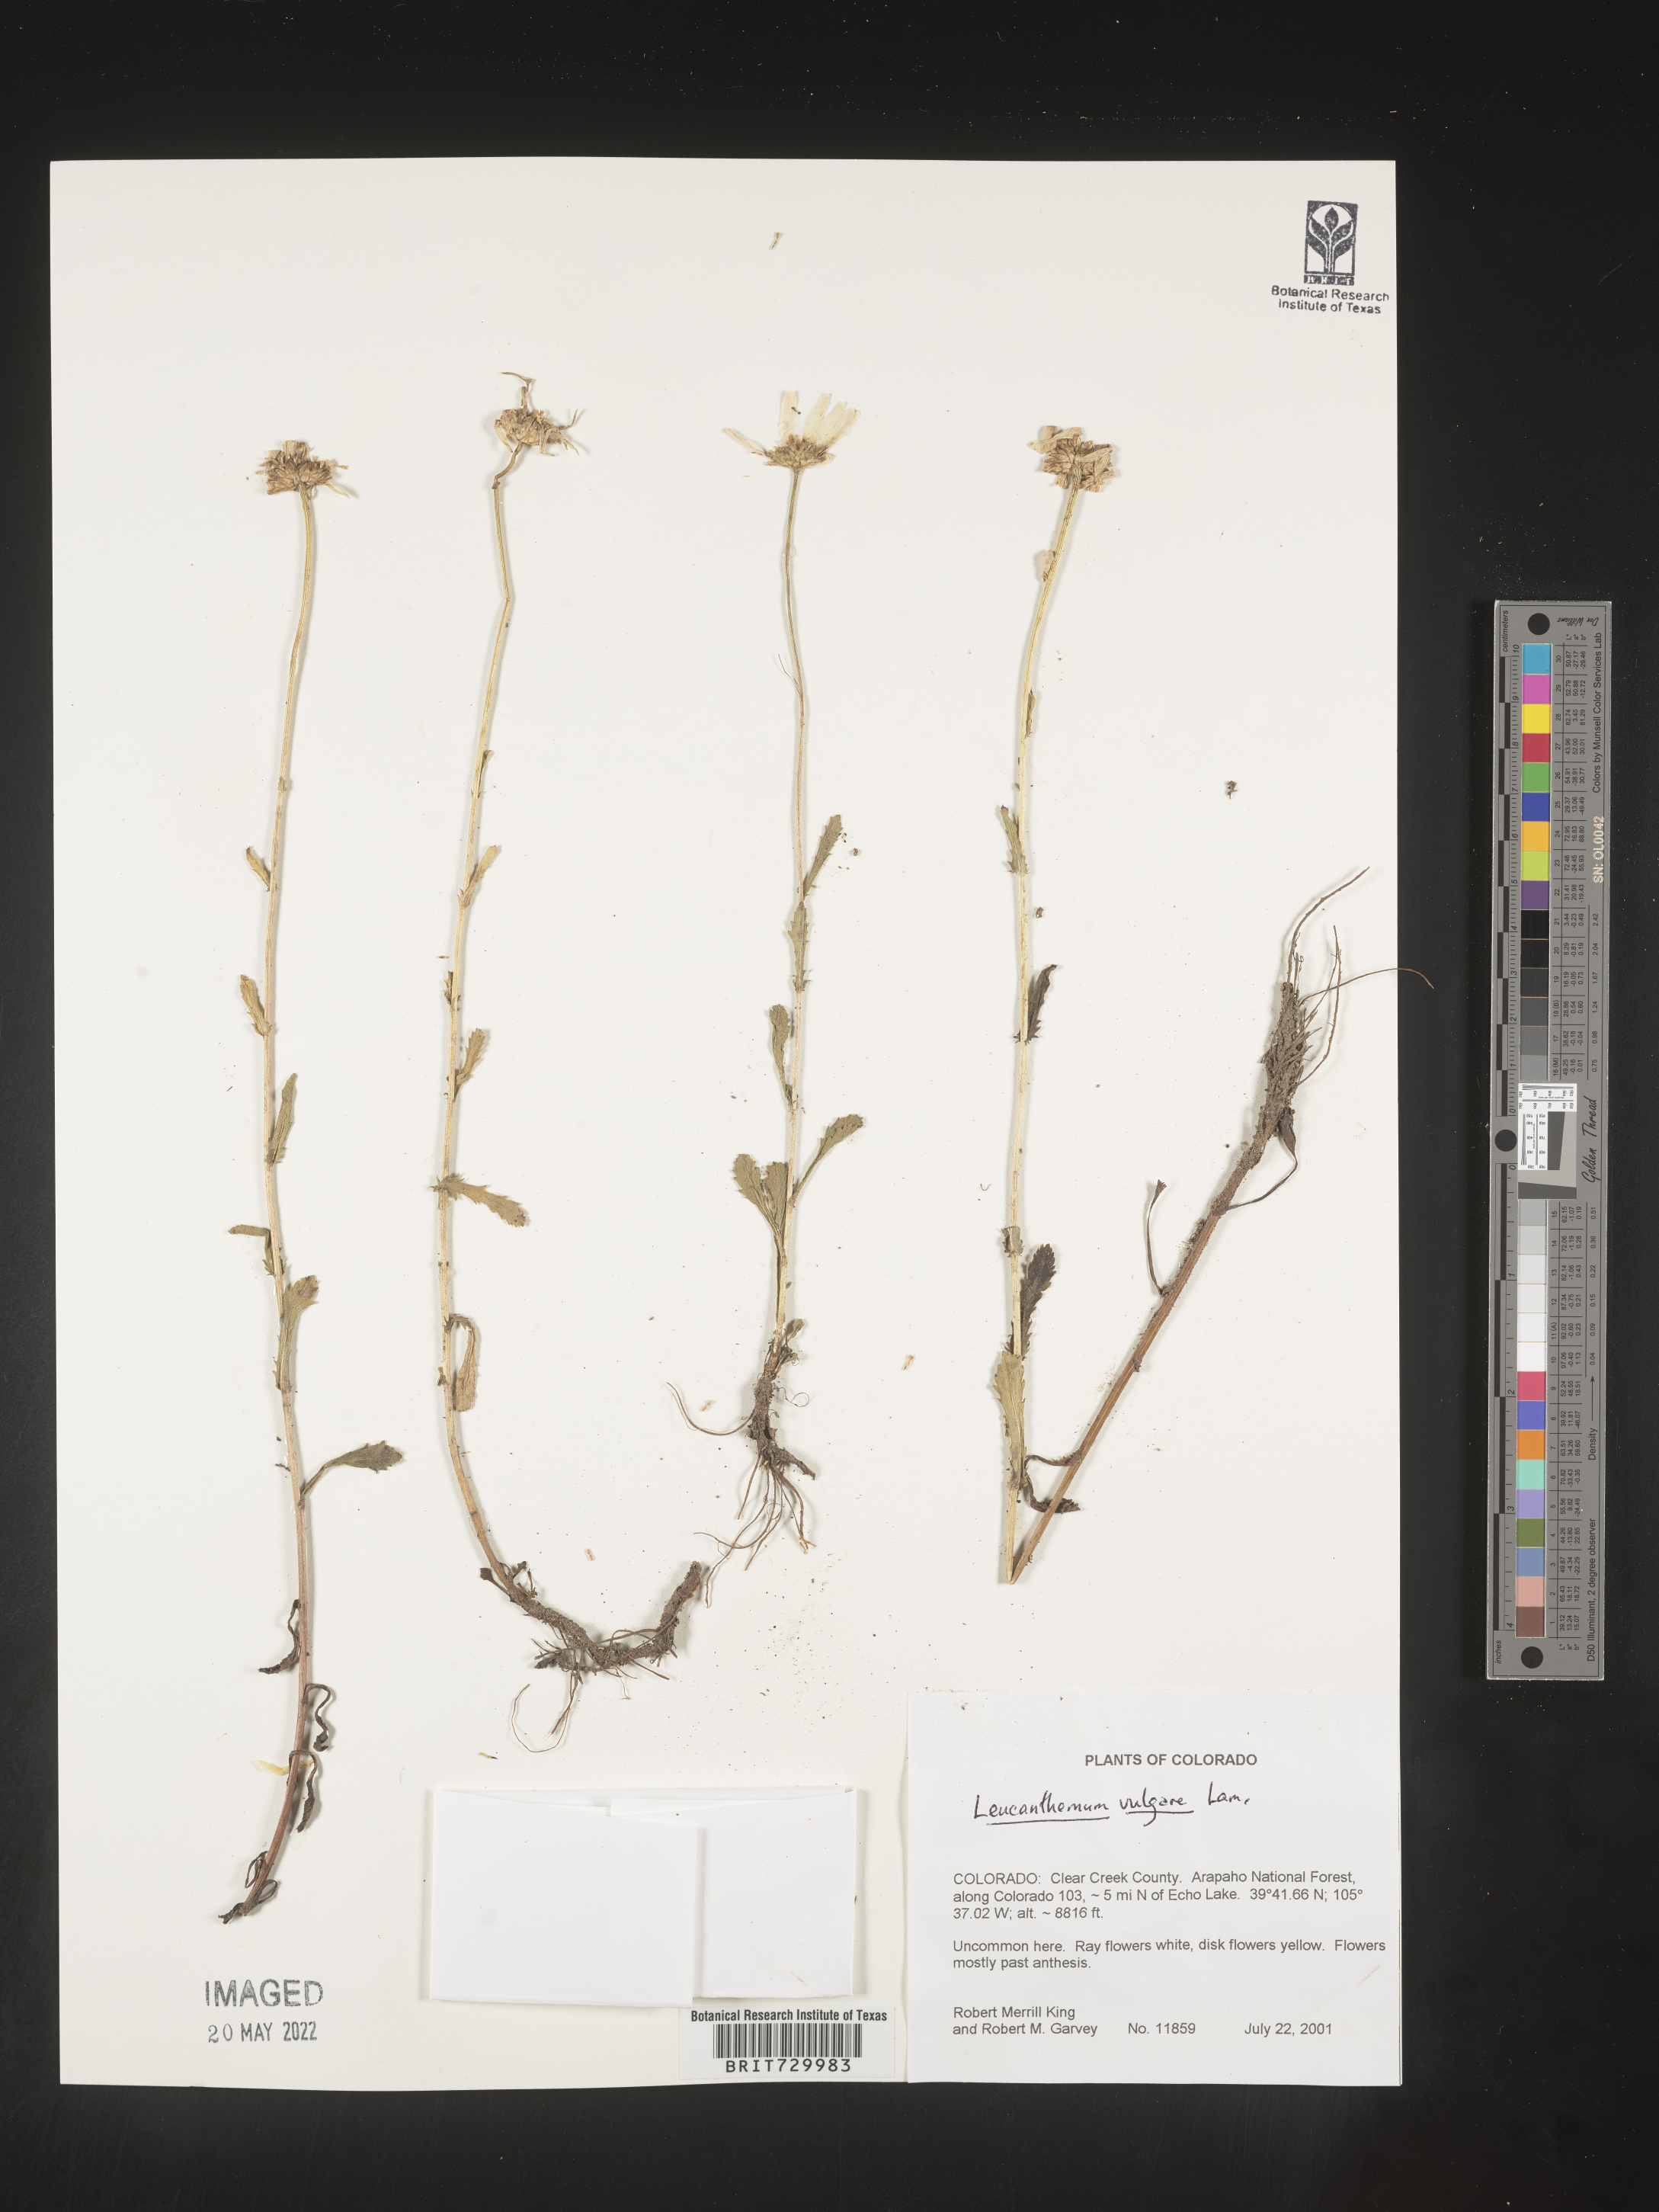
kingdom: Plantae
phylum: Tracheophyta
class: Magnoliopsida
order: Asterales
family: Asteraceae
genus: Leucanthemum
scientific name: Leucanthemum vulgare
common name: Oxeye daisy
